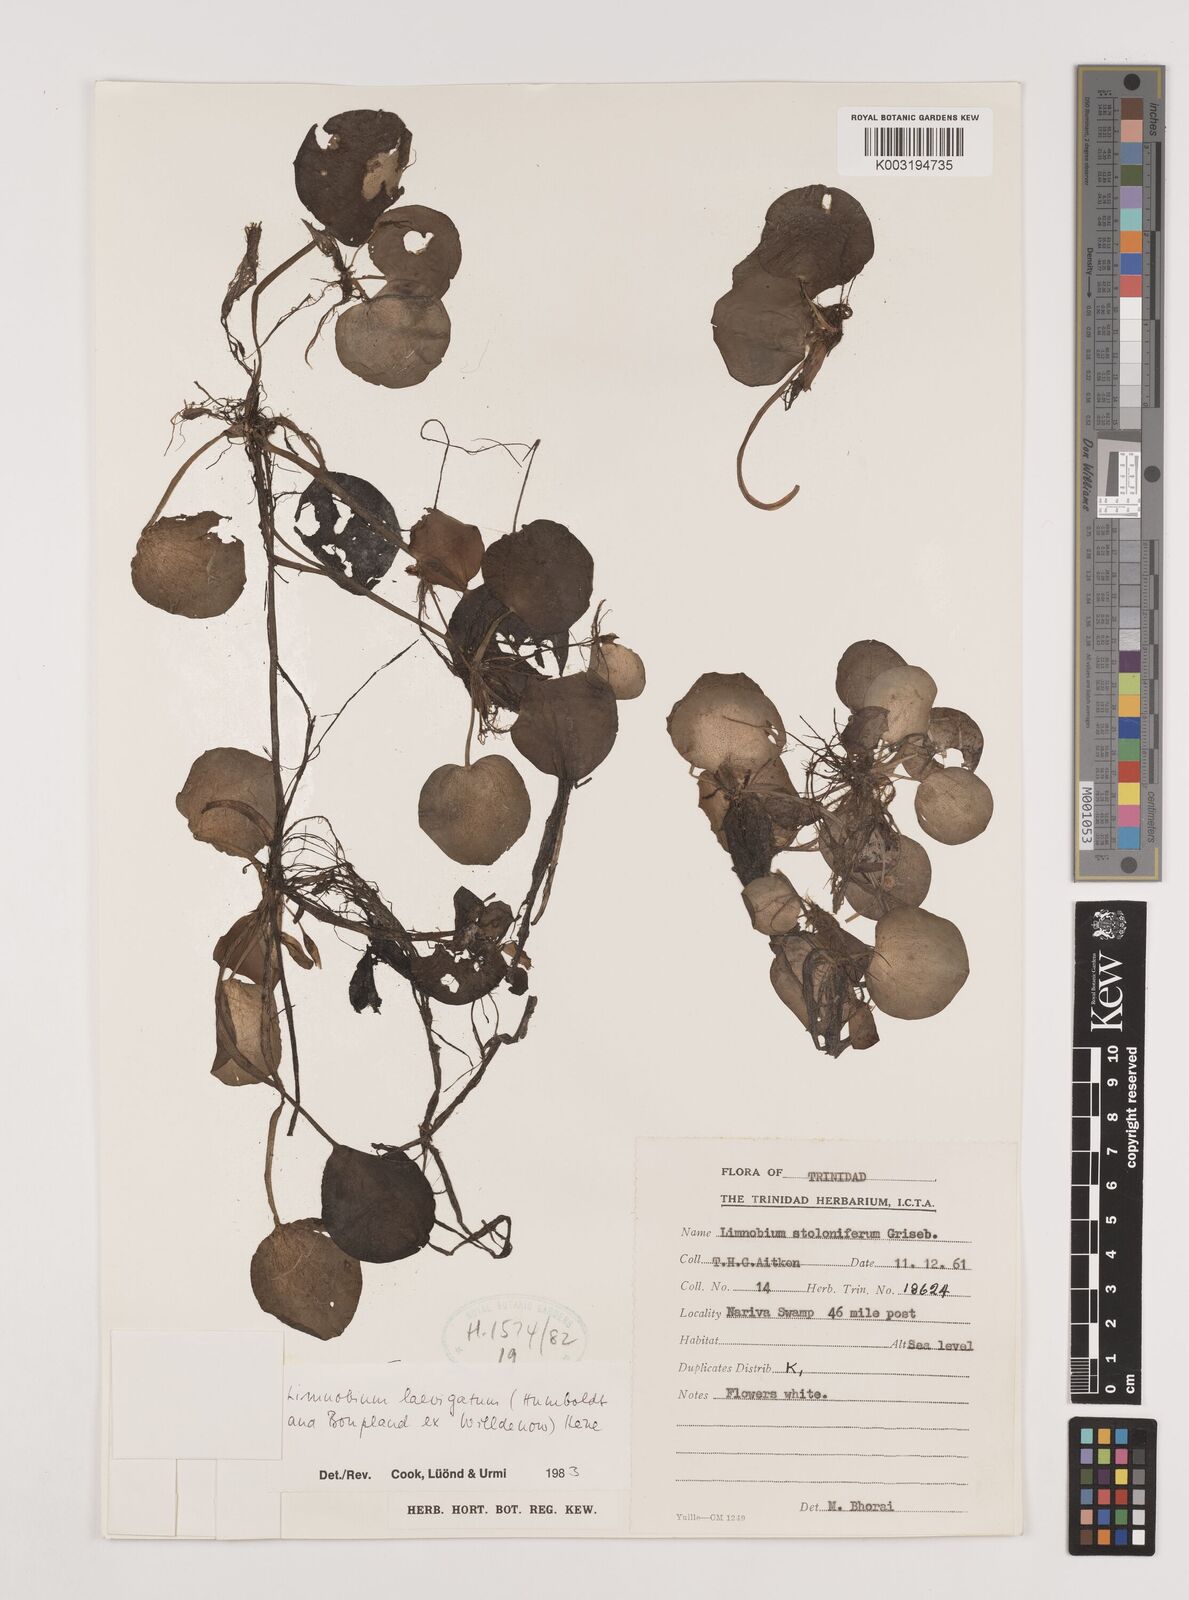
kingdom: Plantae
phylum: Tracheophyta
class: Liliopsida
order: Alismatales
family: Hydrocharitaceae
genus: Hydrocharis
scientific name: Hydrocharis laevigata
